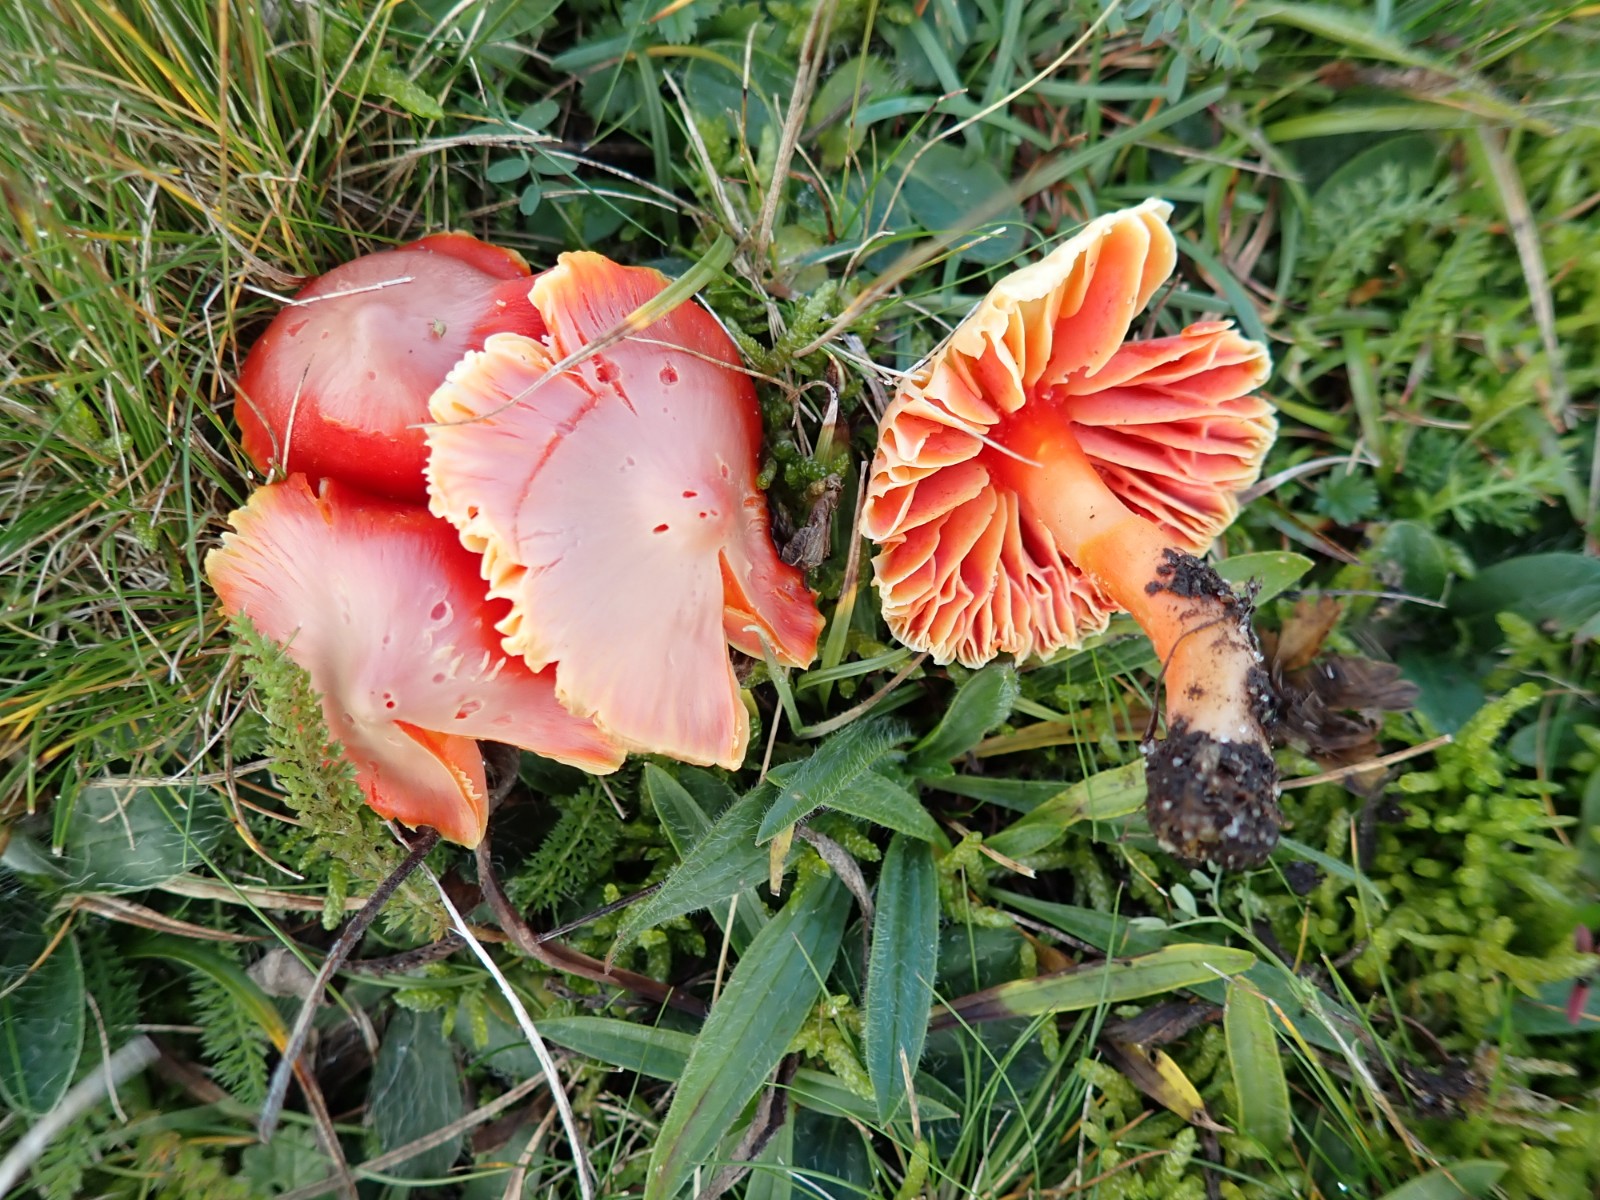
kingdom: Fungi
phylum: Basidiomycota
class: Agaricomycetes
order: Agaricales
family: Hygrophoraceae
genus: Hygrocybe
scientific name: Hygrocybe coccinea
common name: cinnober-vokshat
